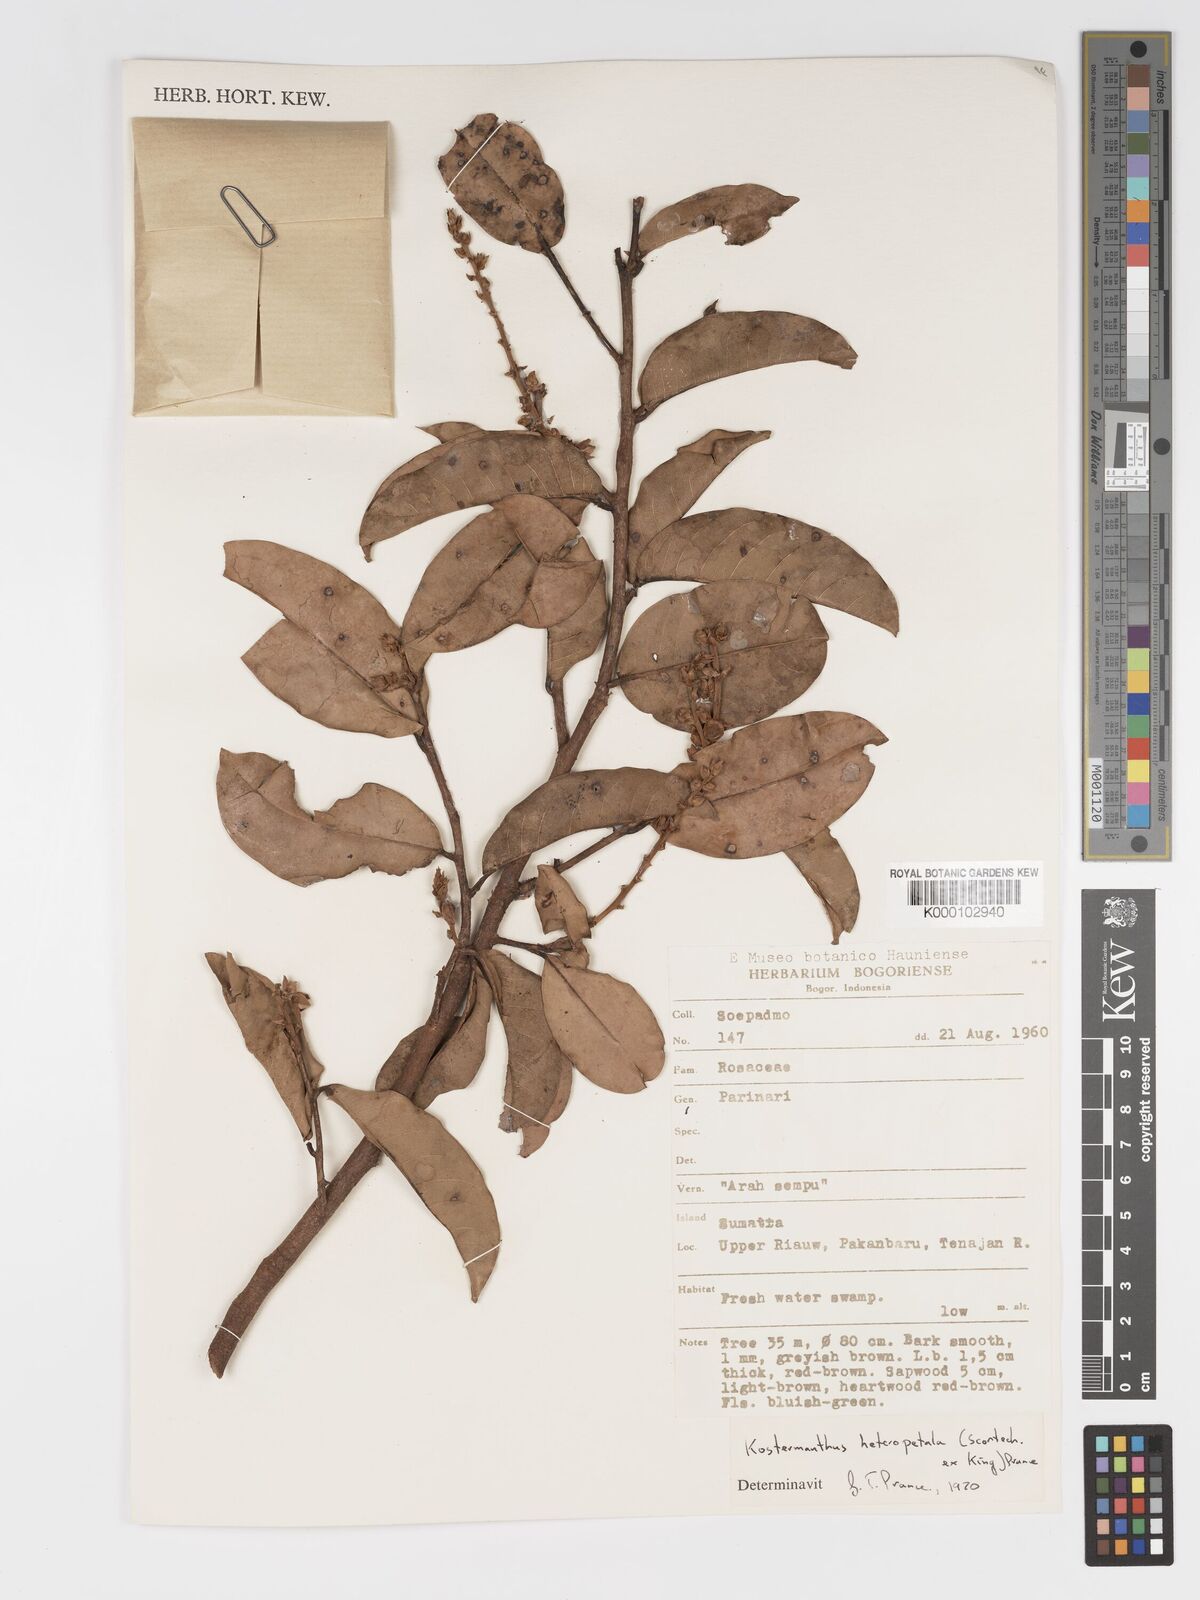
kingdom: Plantae
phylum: Tracheophyta
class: Magnoliopsida
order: Malpighiales
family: Chrysobalanaceae
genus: Kostermanthus
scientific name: Kostermanthus heteropetalus
